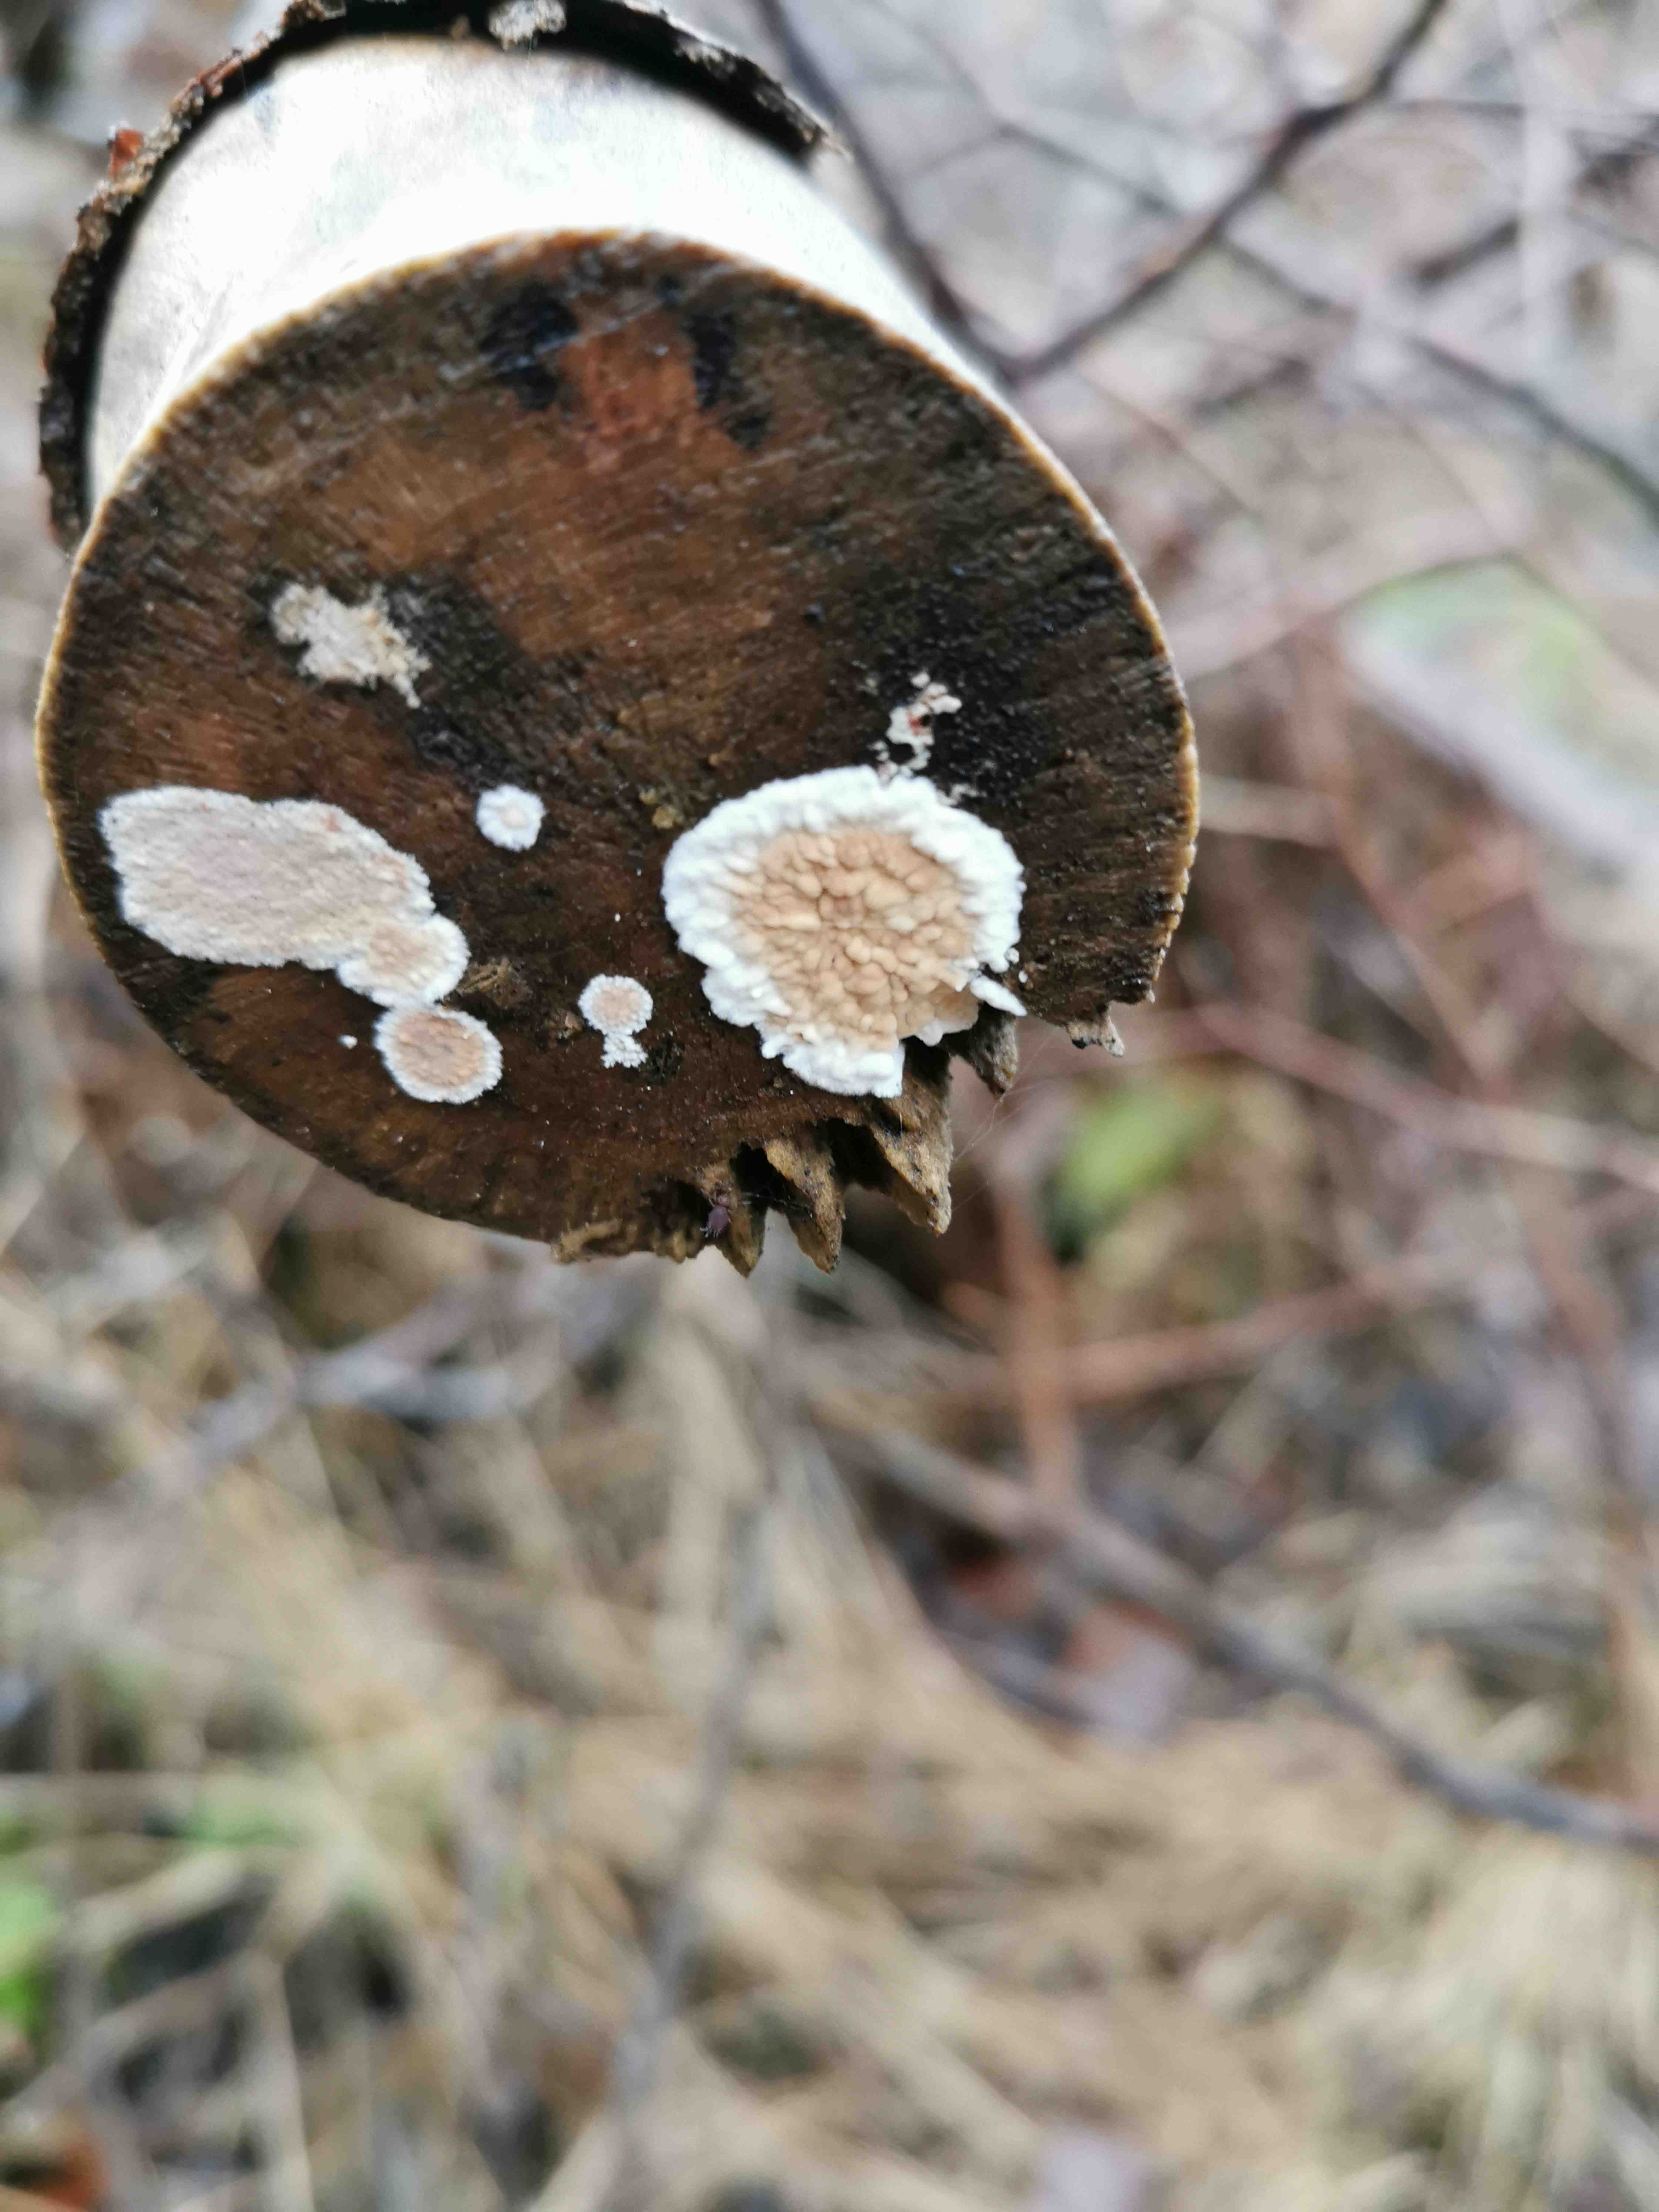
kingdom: Fungi
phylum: Basidiomycota
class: Agaricomycetes
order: Agaricales
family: Physalacriaceae
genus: Cylindrobasidium
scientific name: Cylindrobasidium evolvens
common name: sprækkehinde
